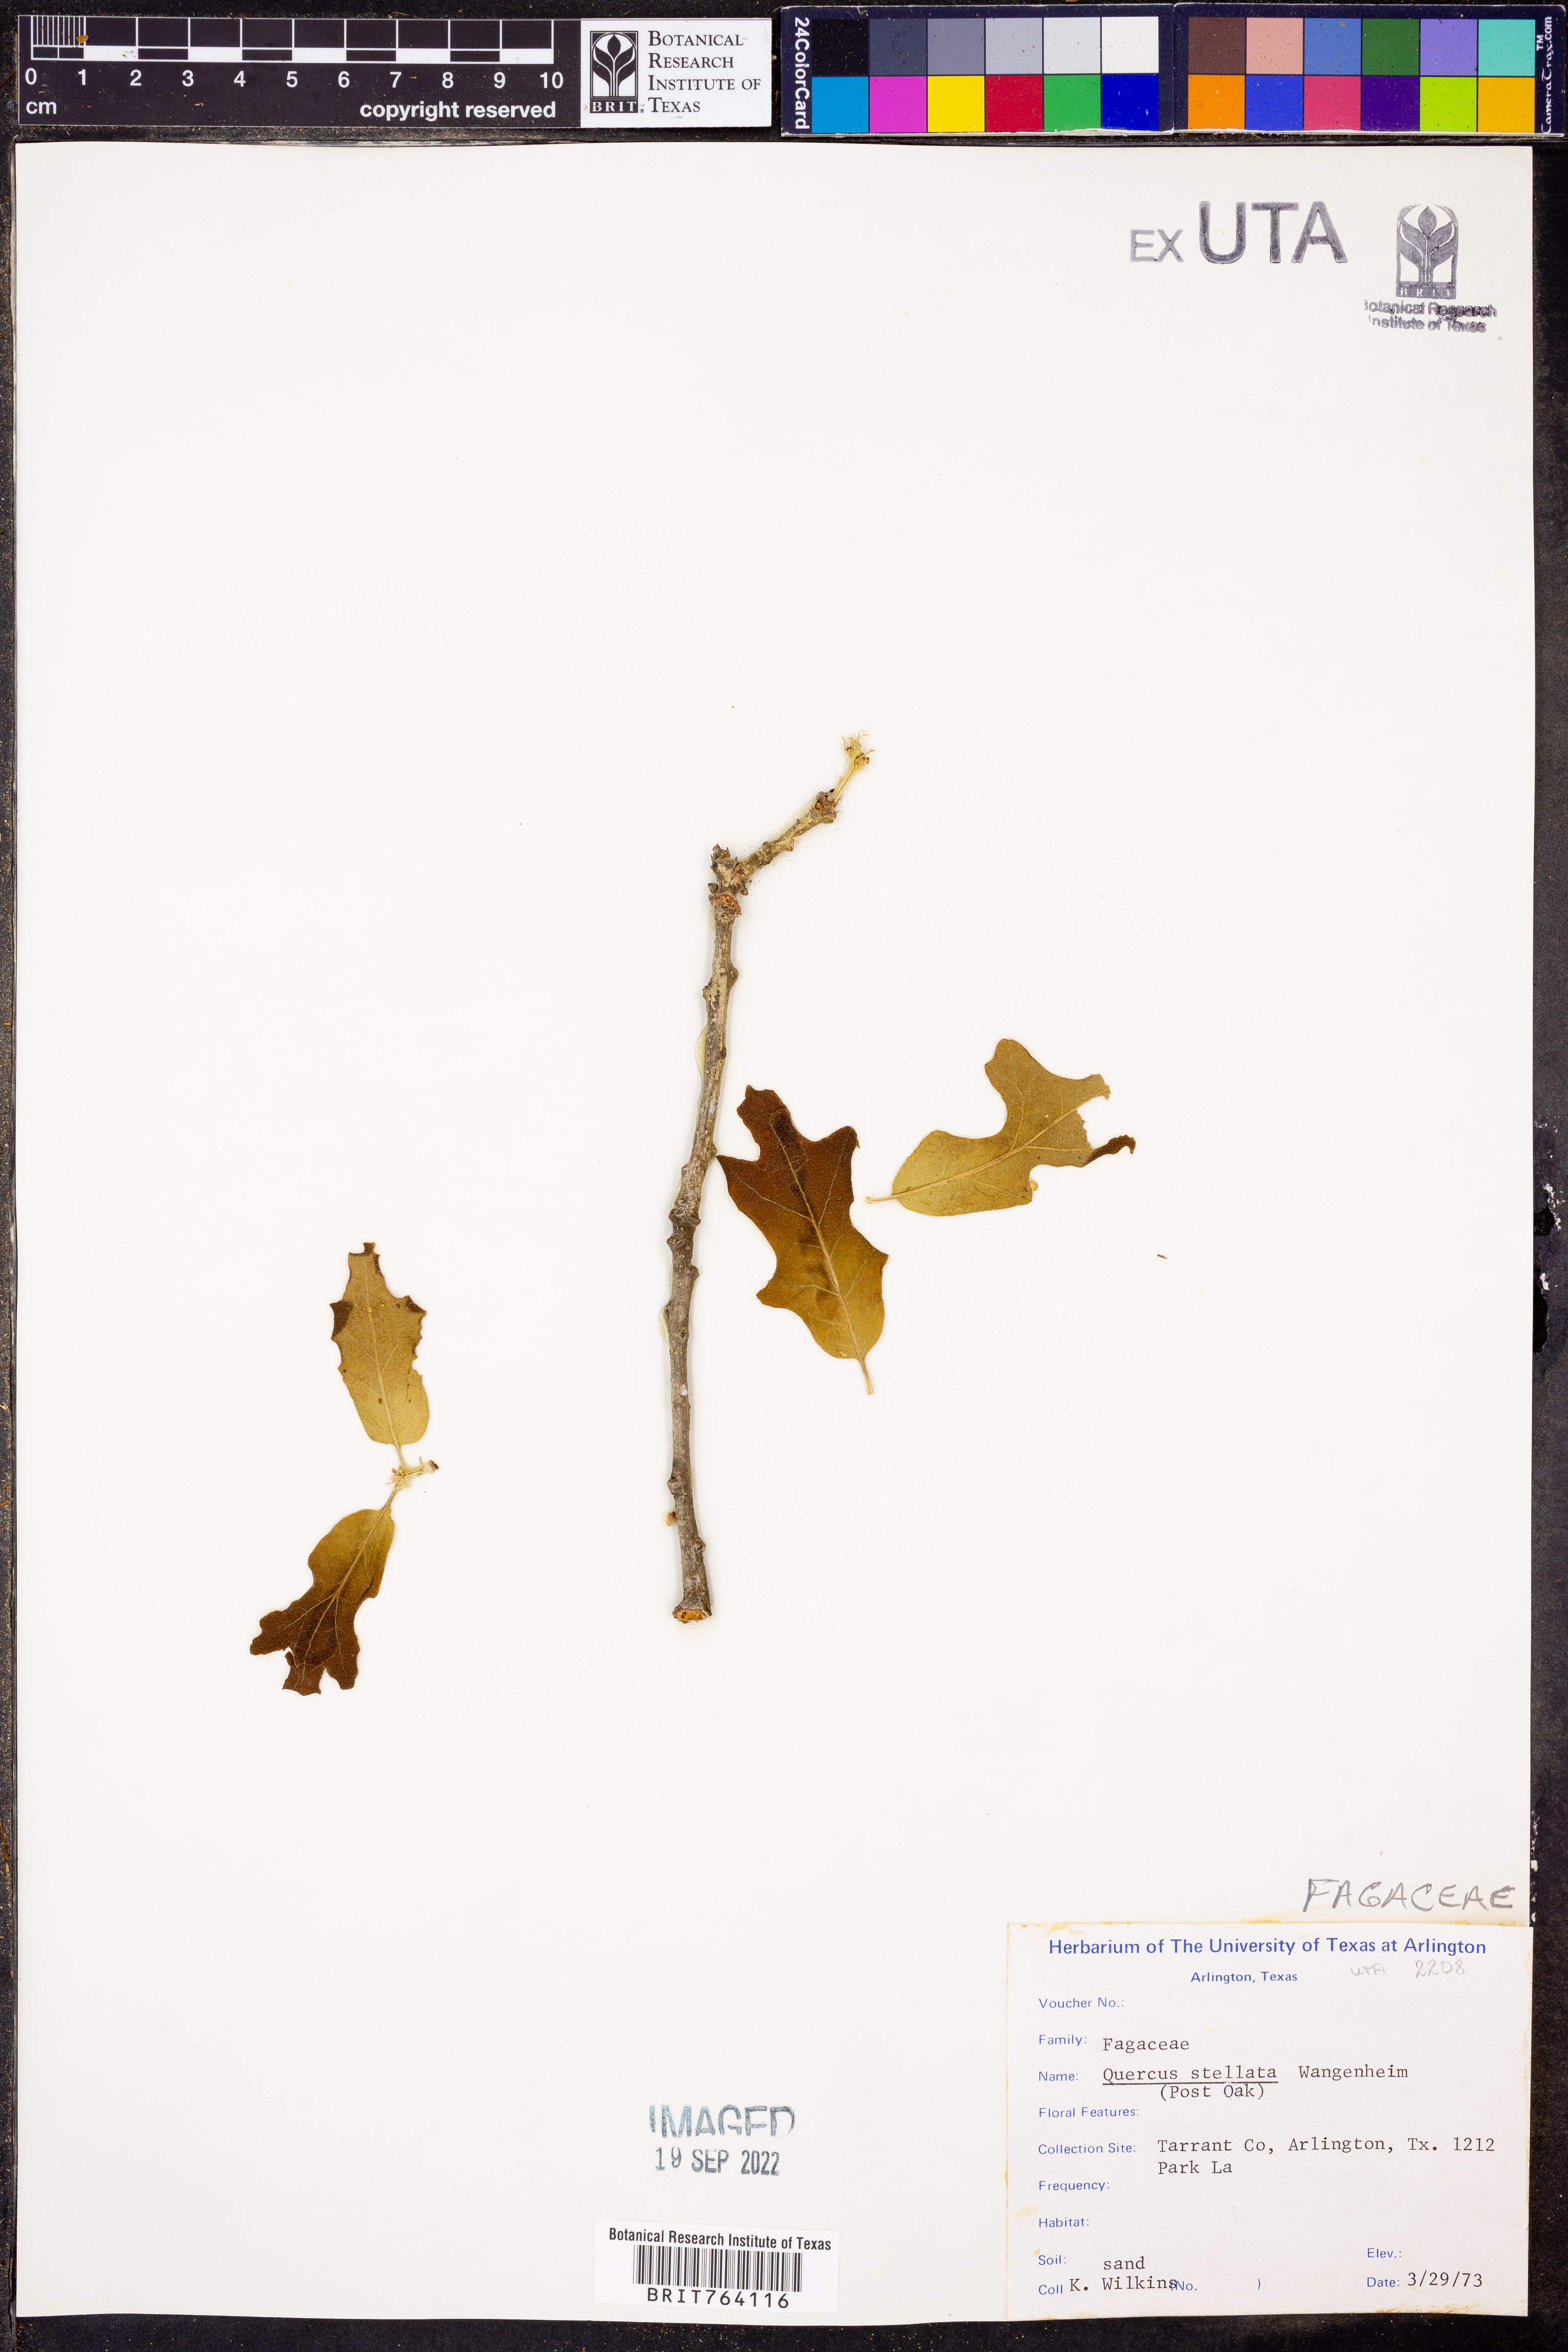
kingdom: Plantae
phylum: Tracheophyta
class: Magnoliopsida
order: Fagales
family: Fagaceae
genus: Quercus
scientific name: Quercus stellata
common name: Post oak
